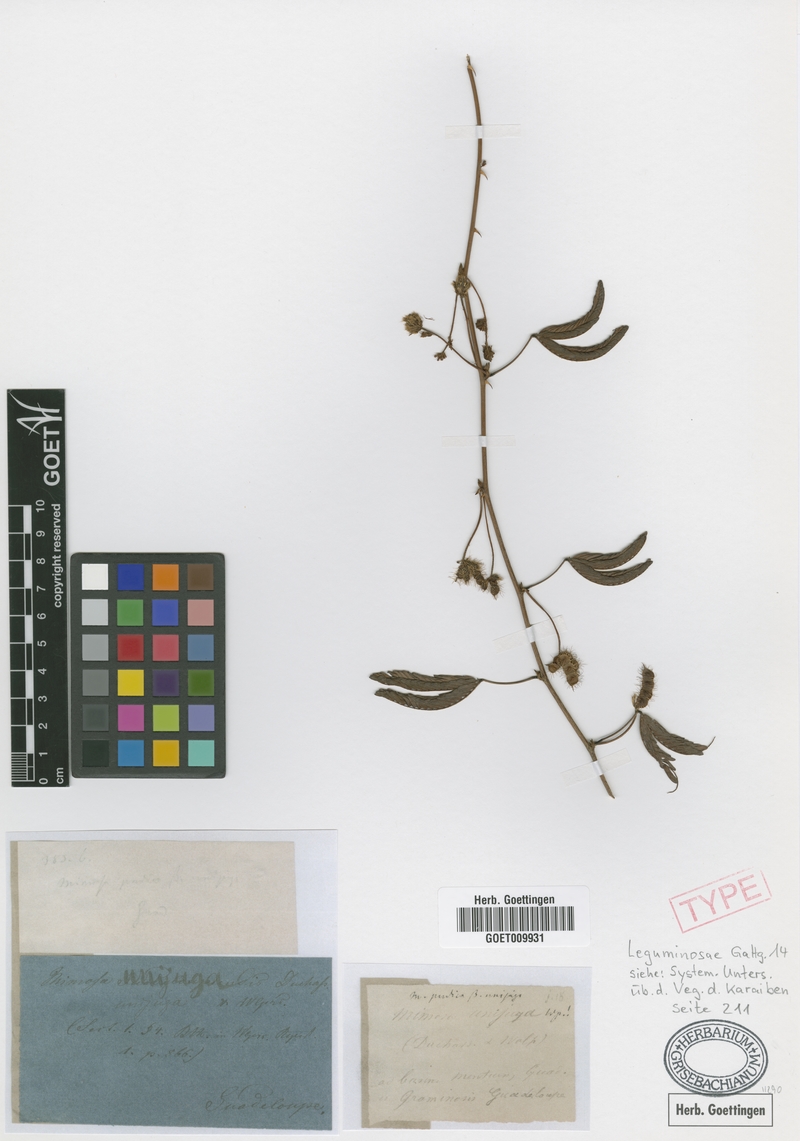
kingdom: Plantae
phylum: Tracheophyta
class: Magnoliopsida
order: Fabales
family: Fabaceae
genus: Mimosa
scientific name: Mimosa pudica
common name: Sensitive plant
